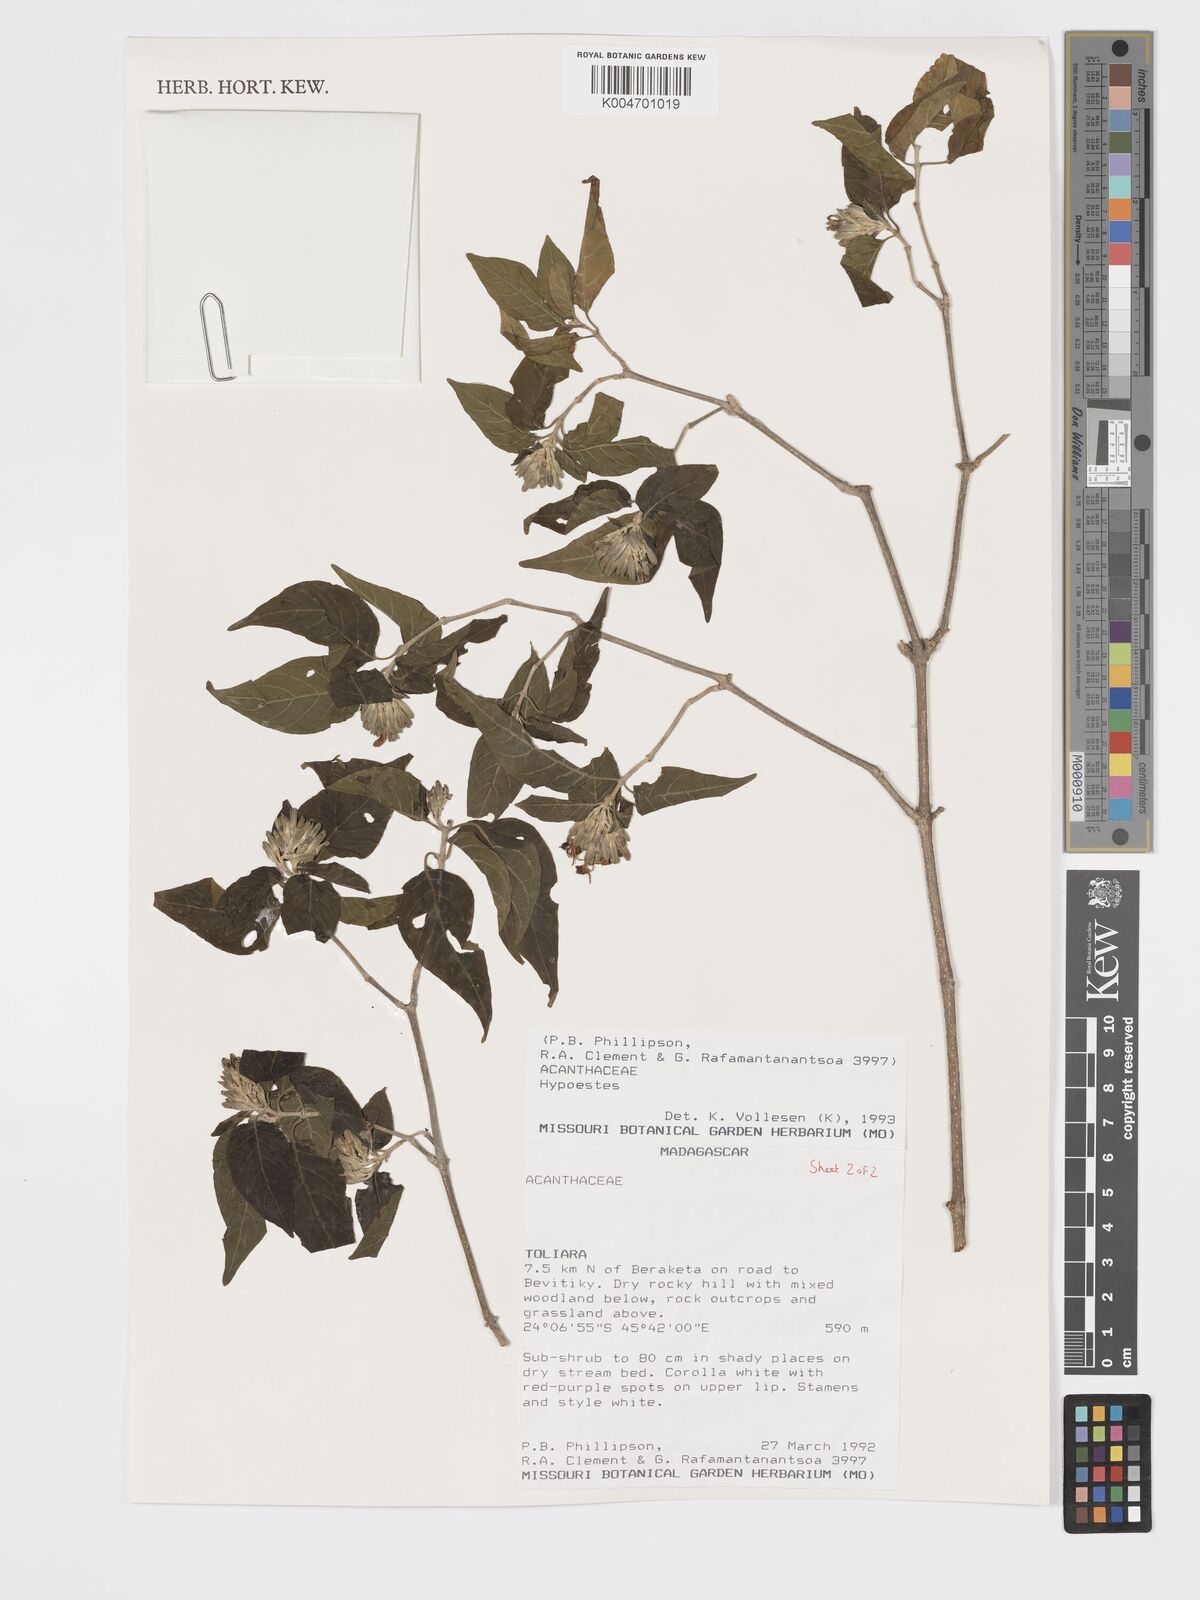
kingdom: Plantae
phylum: Tracheophyta
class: Magnoliopsida
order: Lamiales
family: Acanthaceae
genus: Hypoestes
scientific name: Hypoestes
